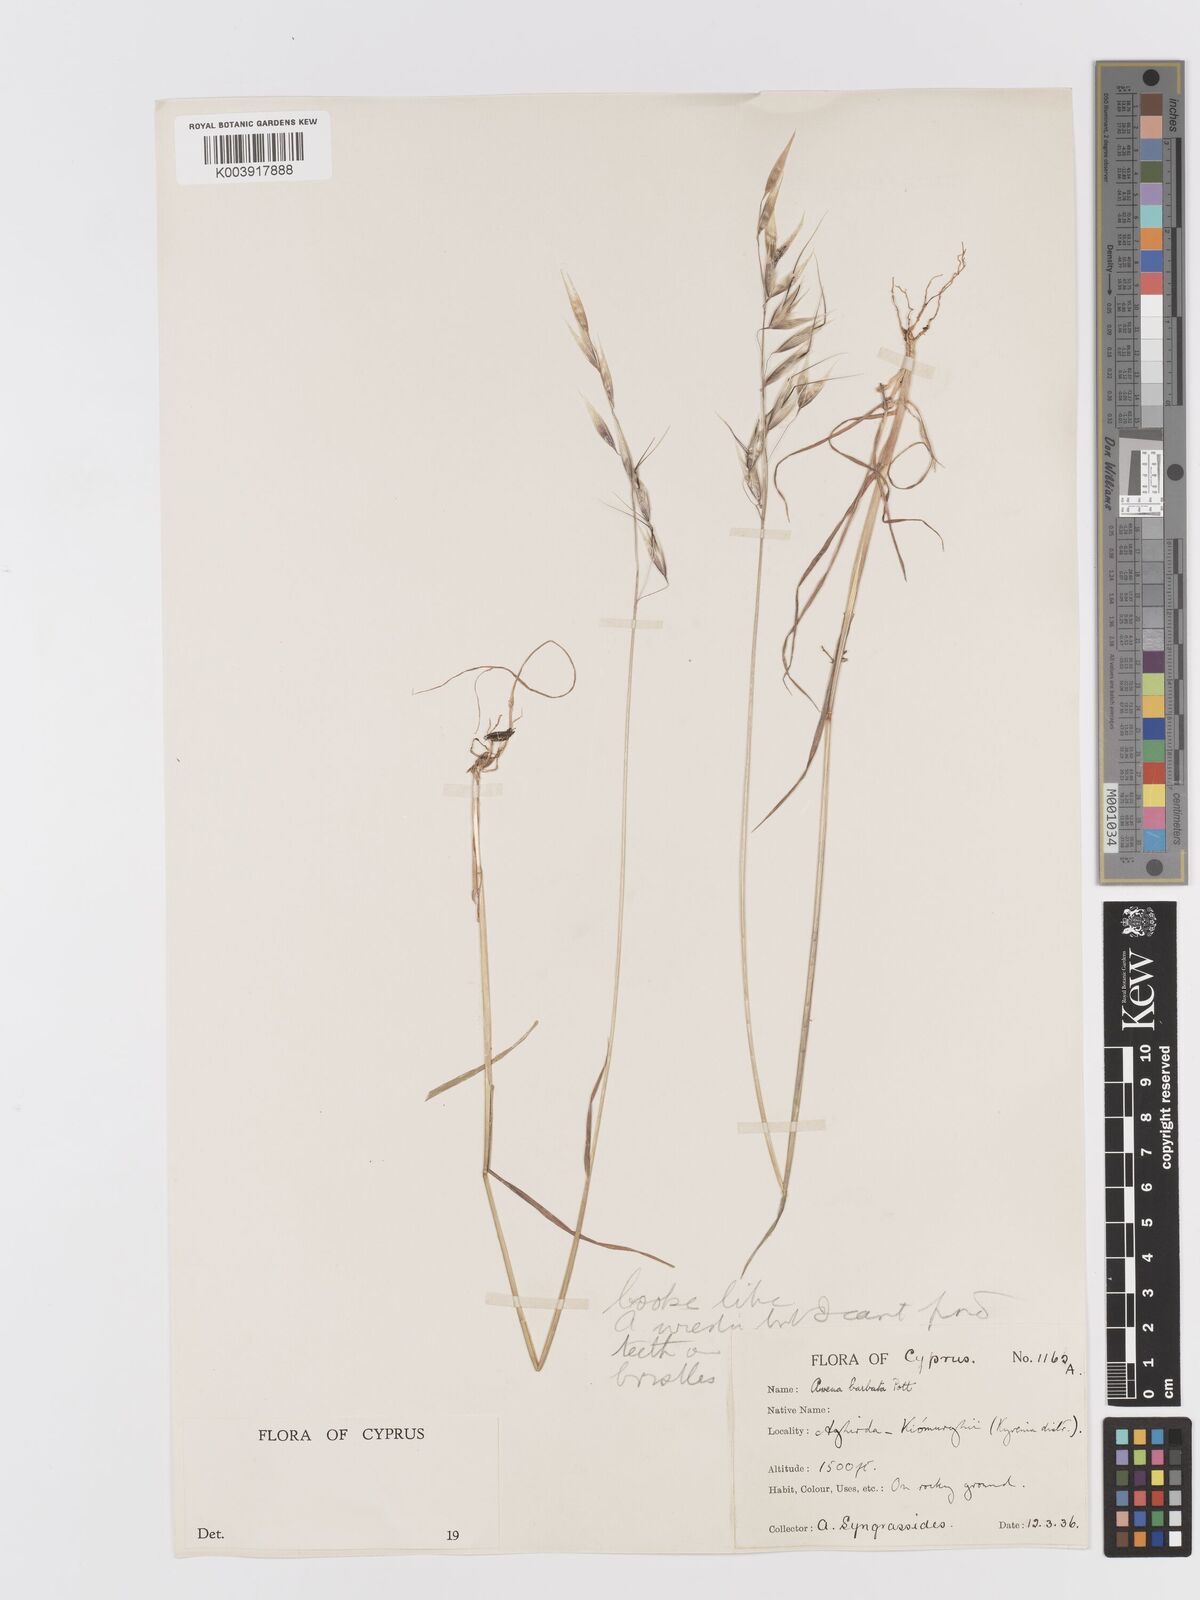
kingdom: Plantae
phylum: Tracheophyta
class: Liliopsida
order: Poales
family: Poaceae
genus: Avena
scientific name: Avena
